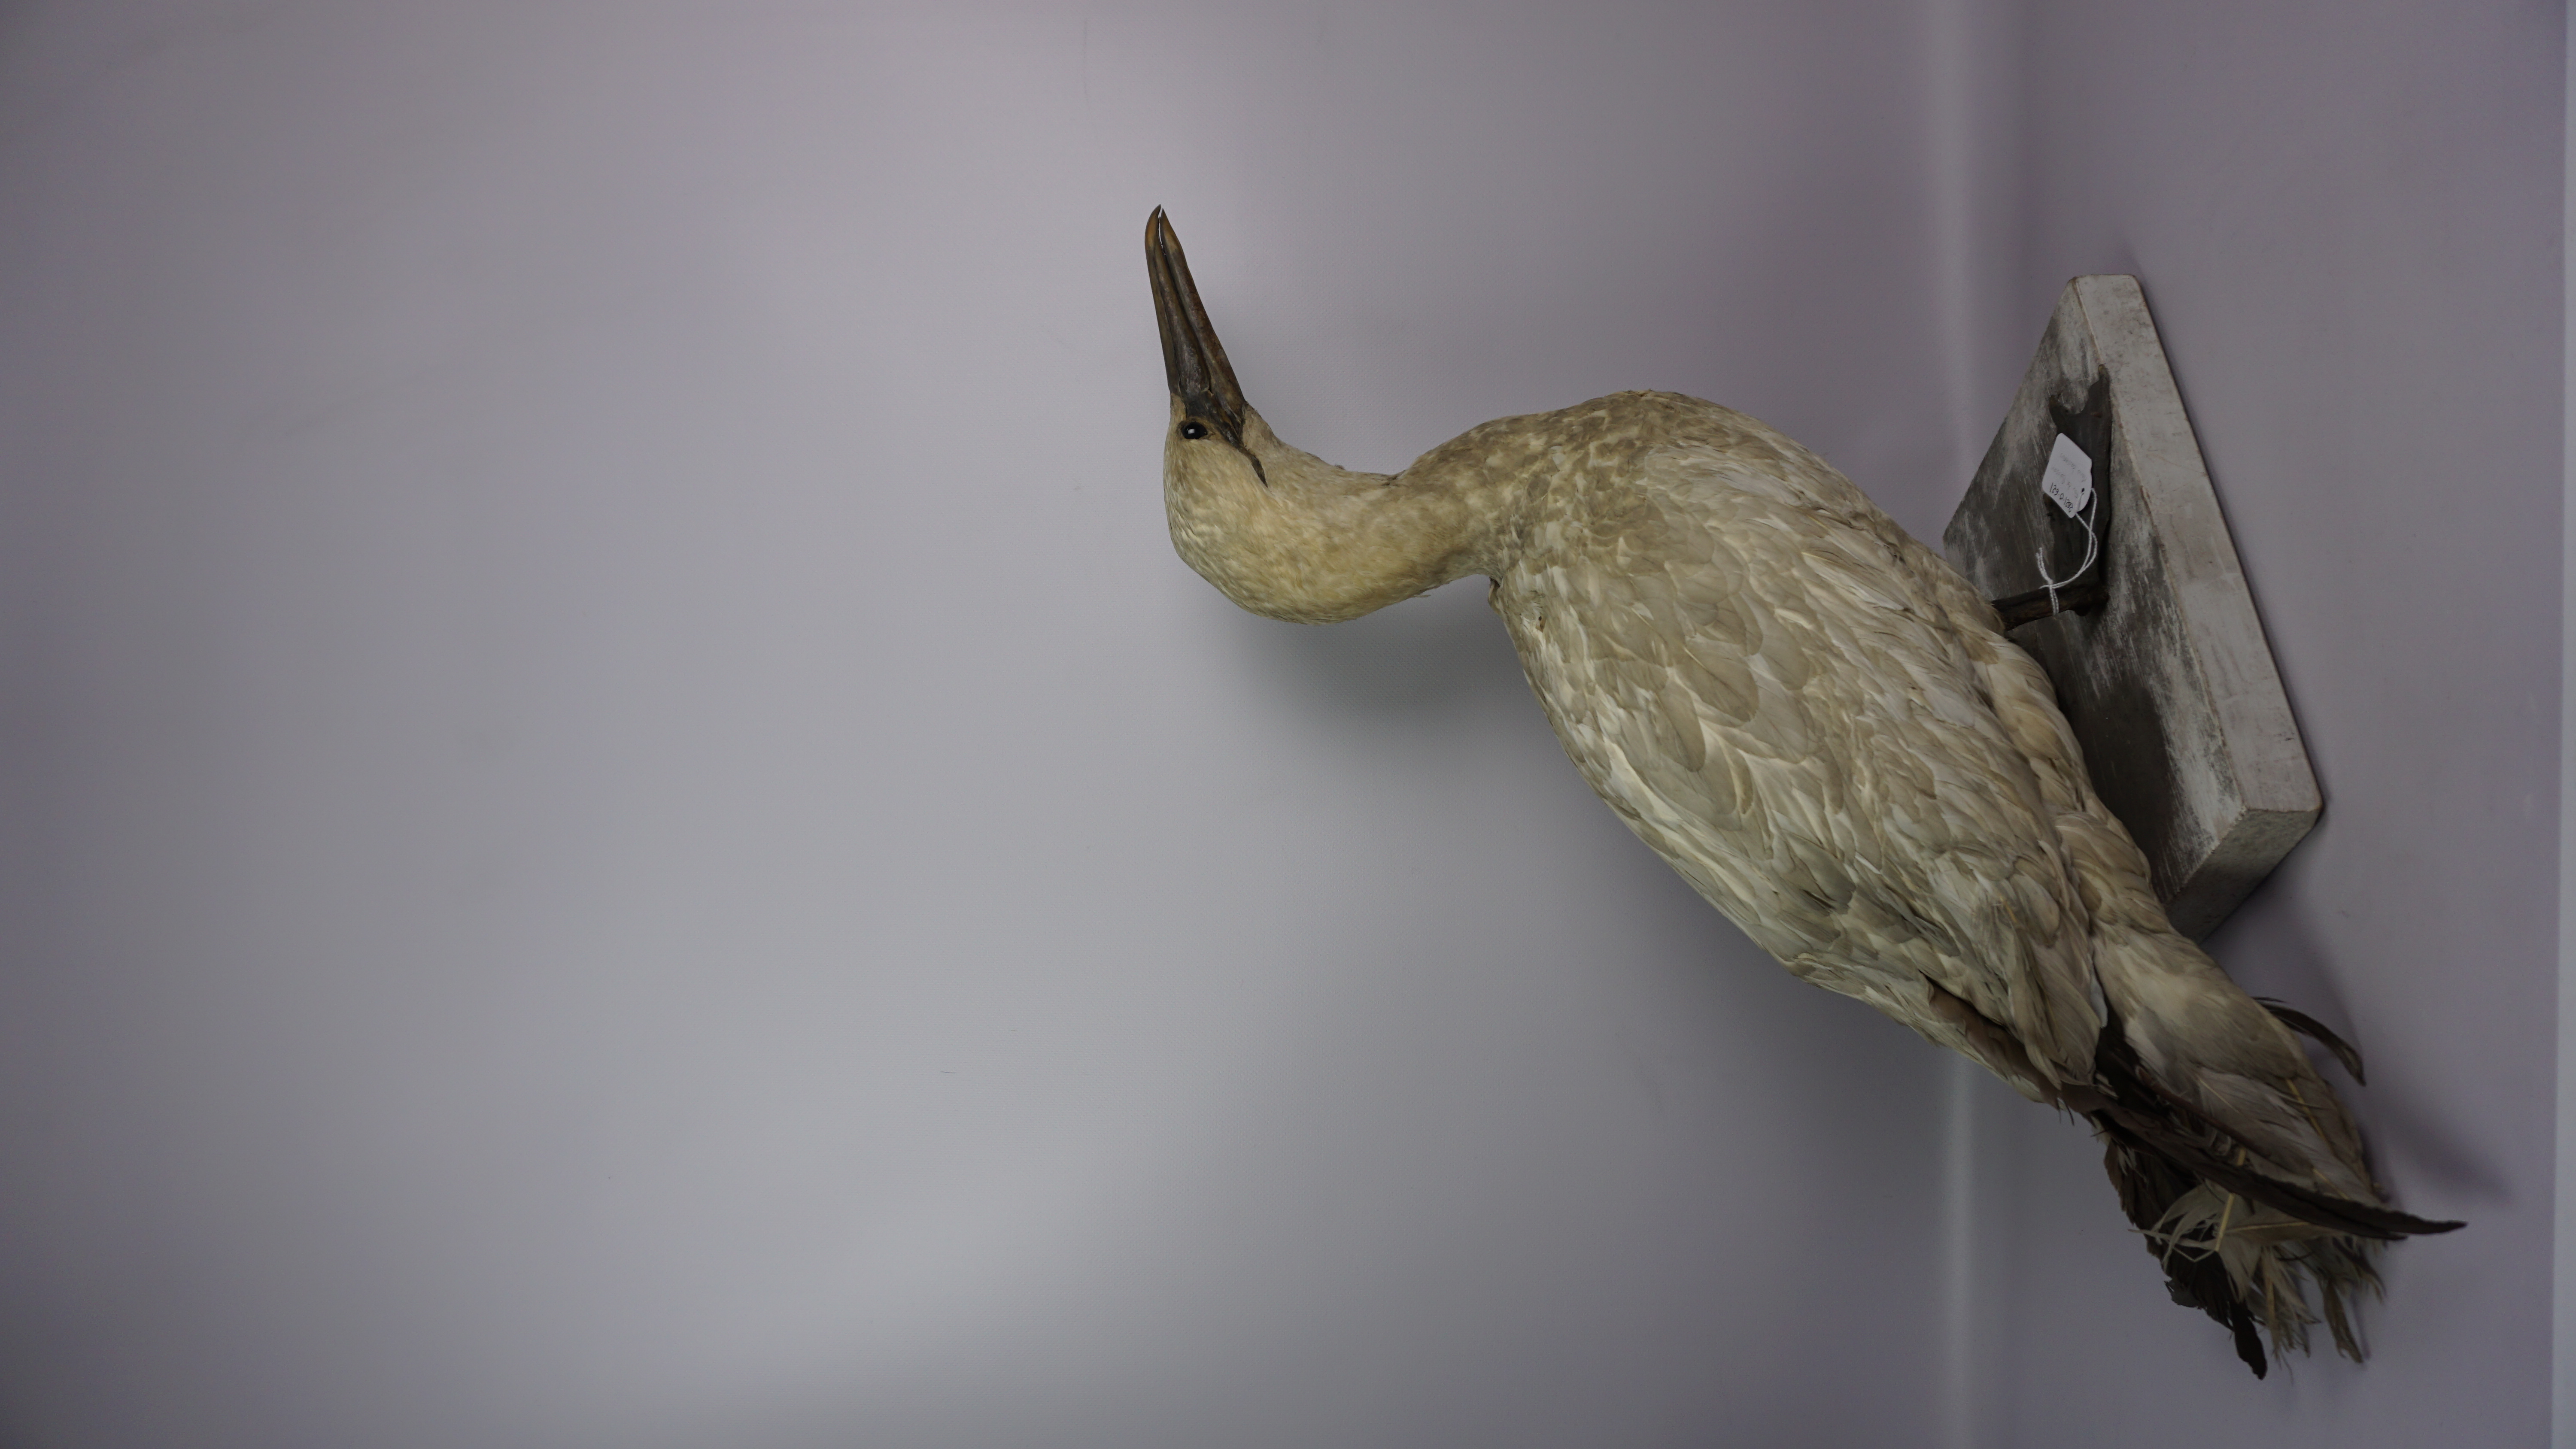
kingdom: Animalia
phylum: Chordata
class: Aves
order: Suliformes
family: Sulidae
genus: Morus
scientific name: Morus bassanus
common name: Northern gannet
